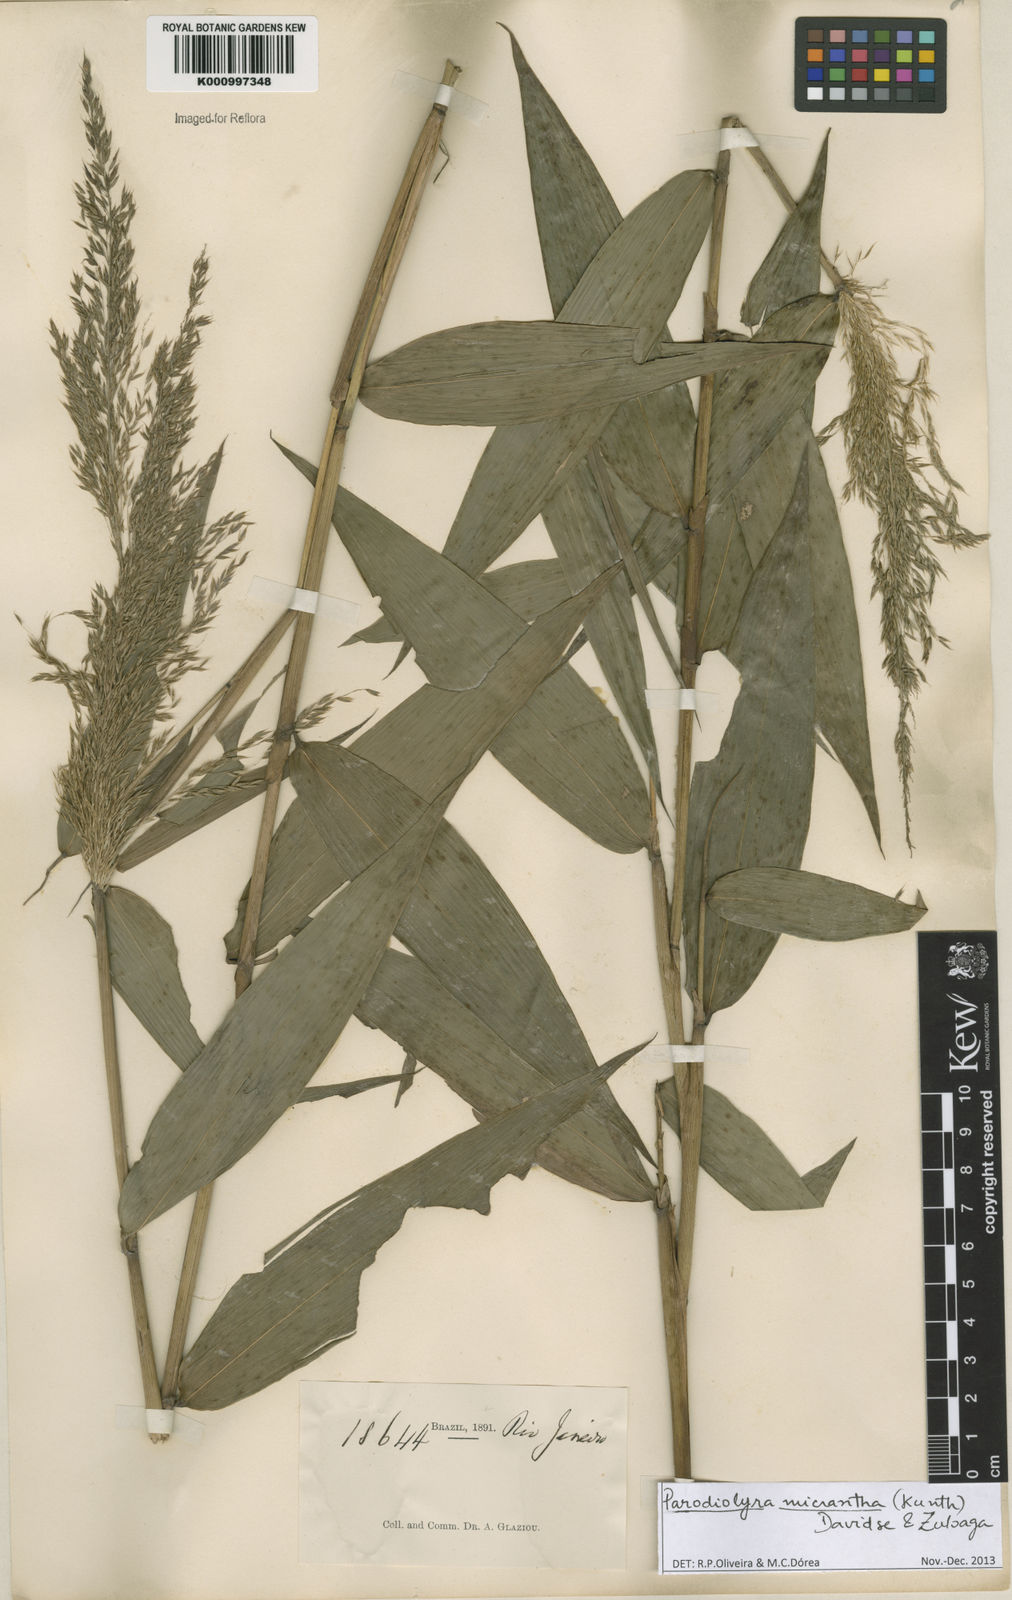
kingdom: Plantae
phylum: Tracheophyta
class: Liliopsida
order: Poales
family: Poaceae
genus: Taquara
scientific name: Taquara micrantha
